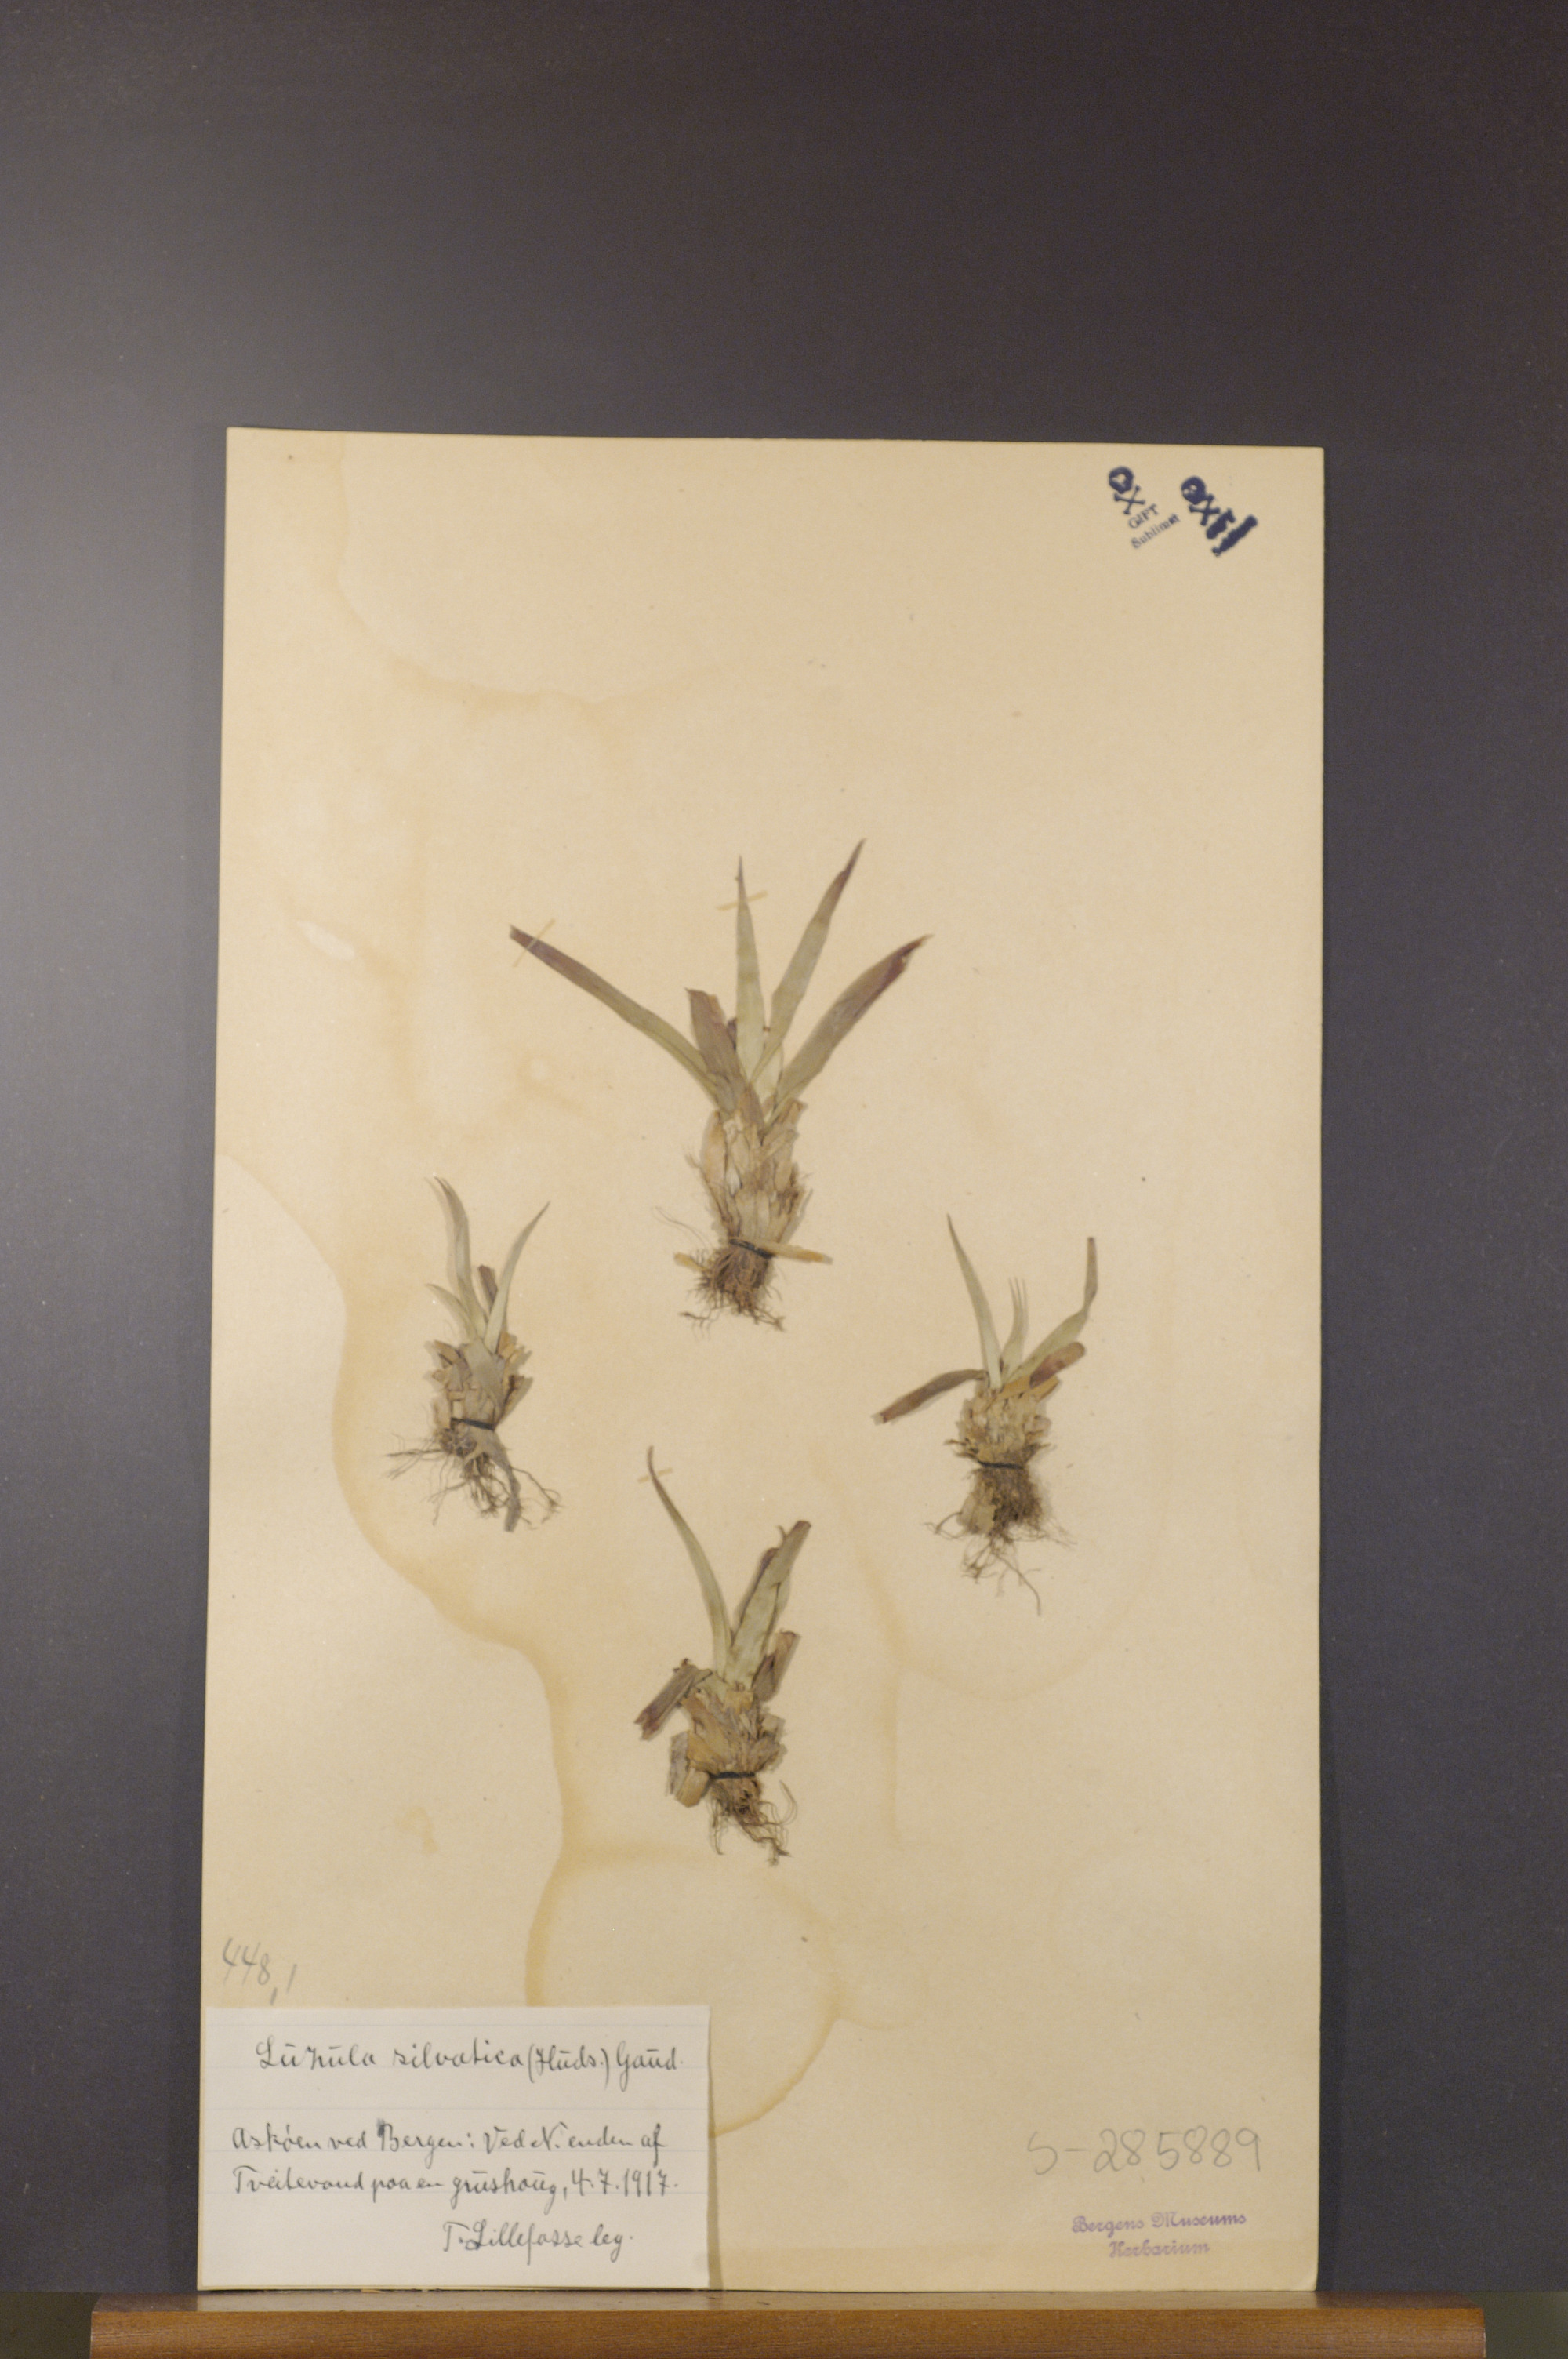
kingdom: Plantae
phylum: Tracheophyta
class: Liliopsida
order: Poales
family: Juncaceae
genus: Luzula
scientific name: Luzula sylvatica
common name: Great wood-rush
